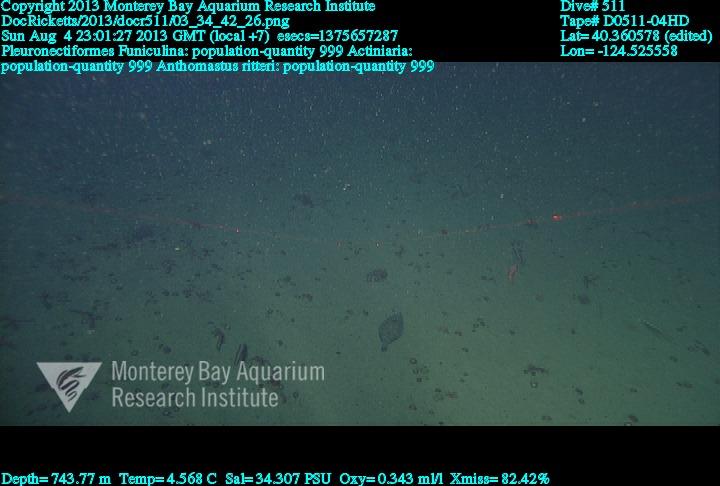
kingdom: Animalia
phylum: Cnidaria
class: Anthozoa
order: Scleralcyonacea
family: Coralliidae
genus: Heteropolypus
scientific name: Heteropolypus ritteri
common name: Ritter's soft coral
